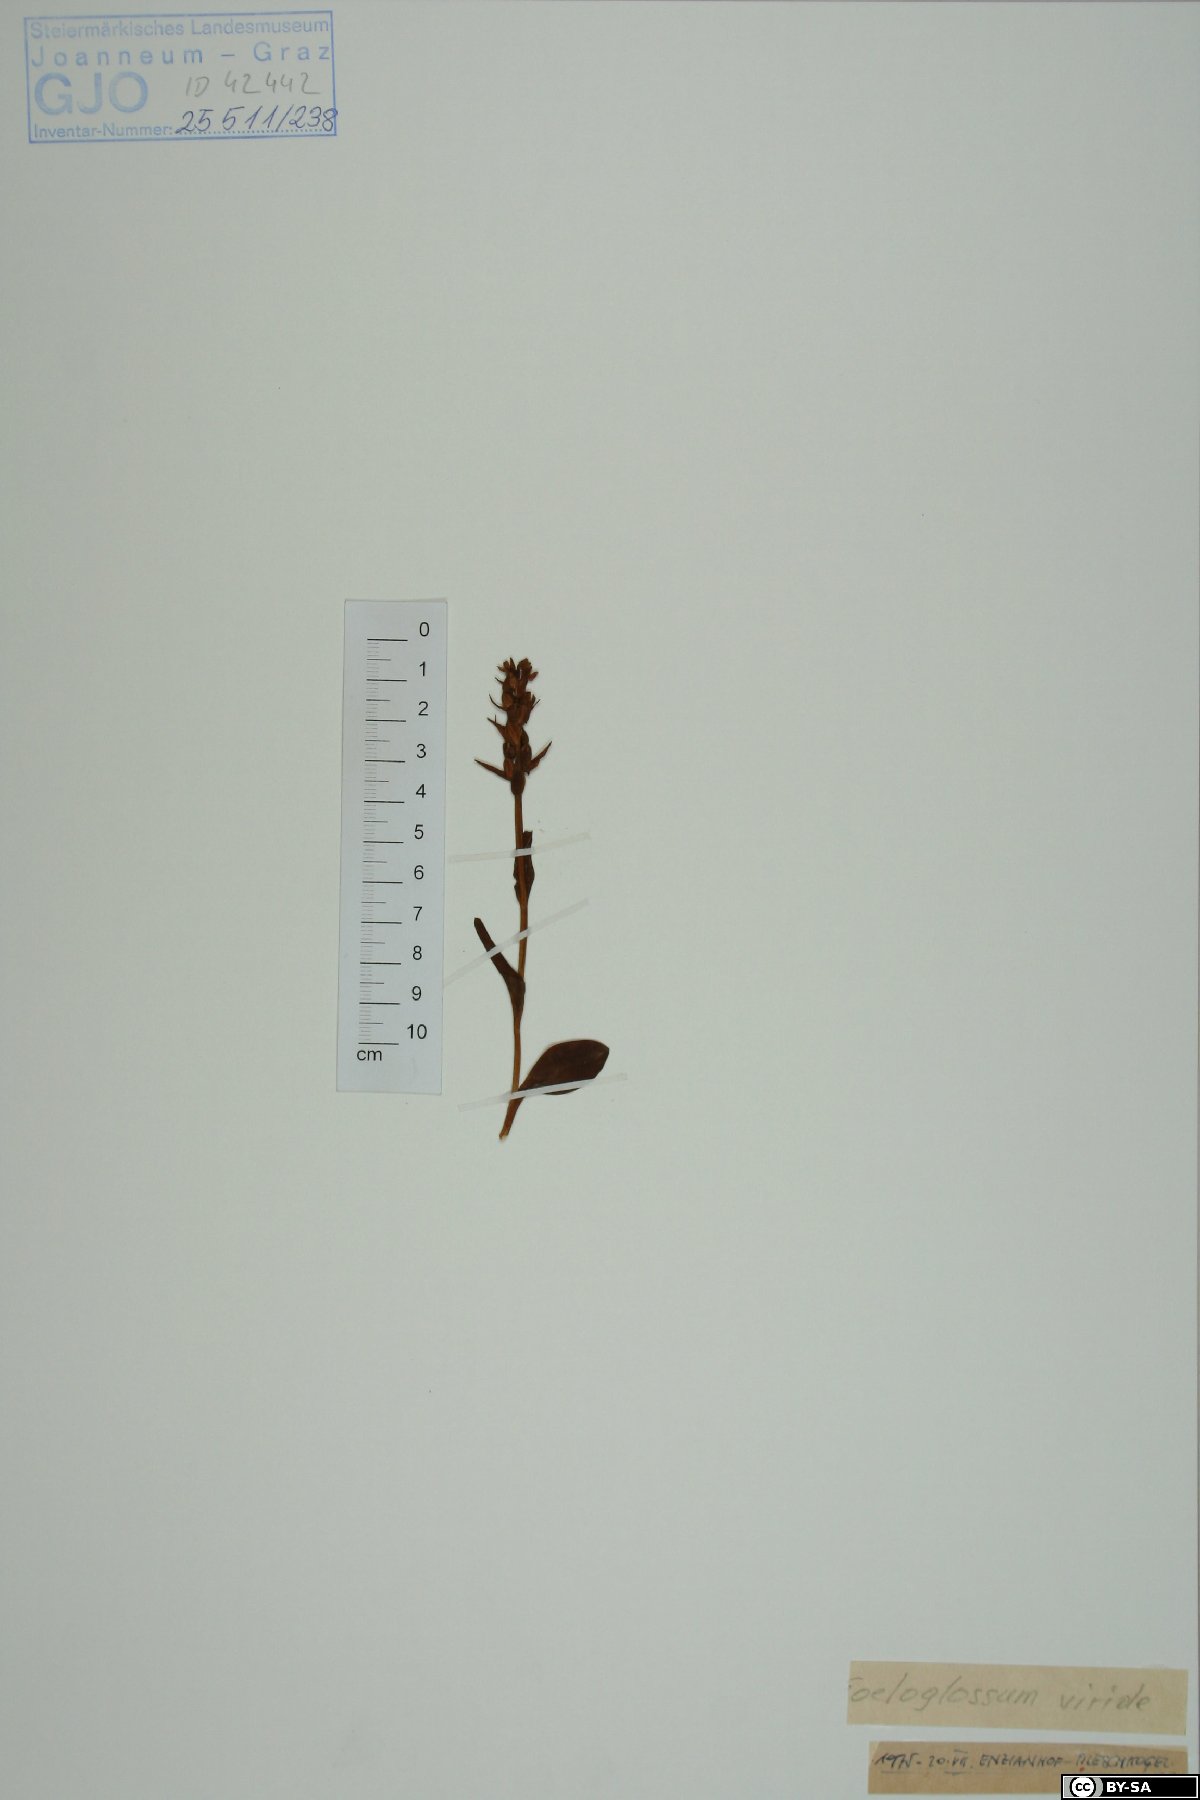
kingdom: Plantae
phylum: Tracheophyta
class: Liliopsida
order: Asparagales
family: Orchidaceae
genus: Dactylorhiza
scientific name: Dactylorhiza viridis
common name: Longbract frog orchid
